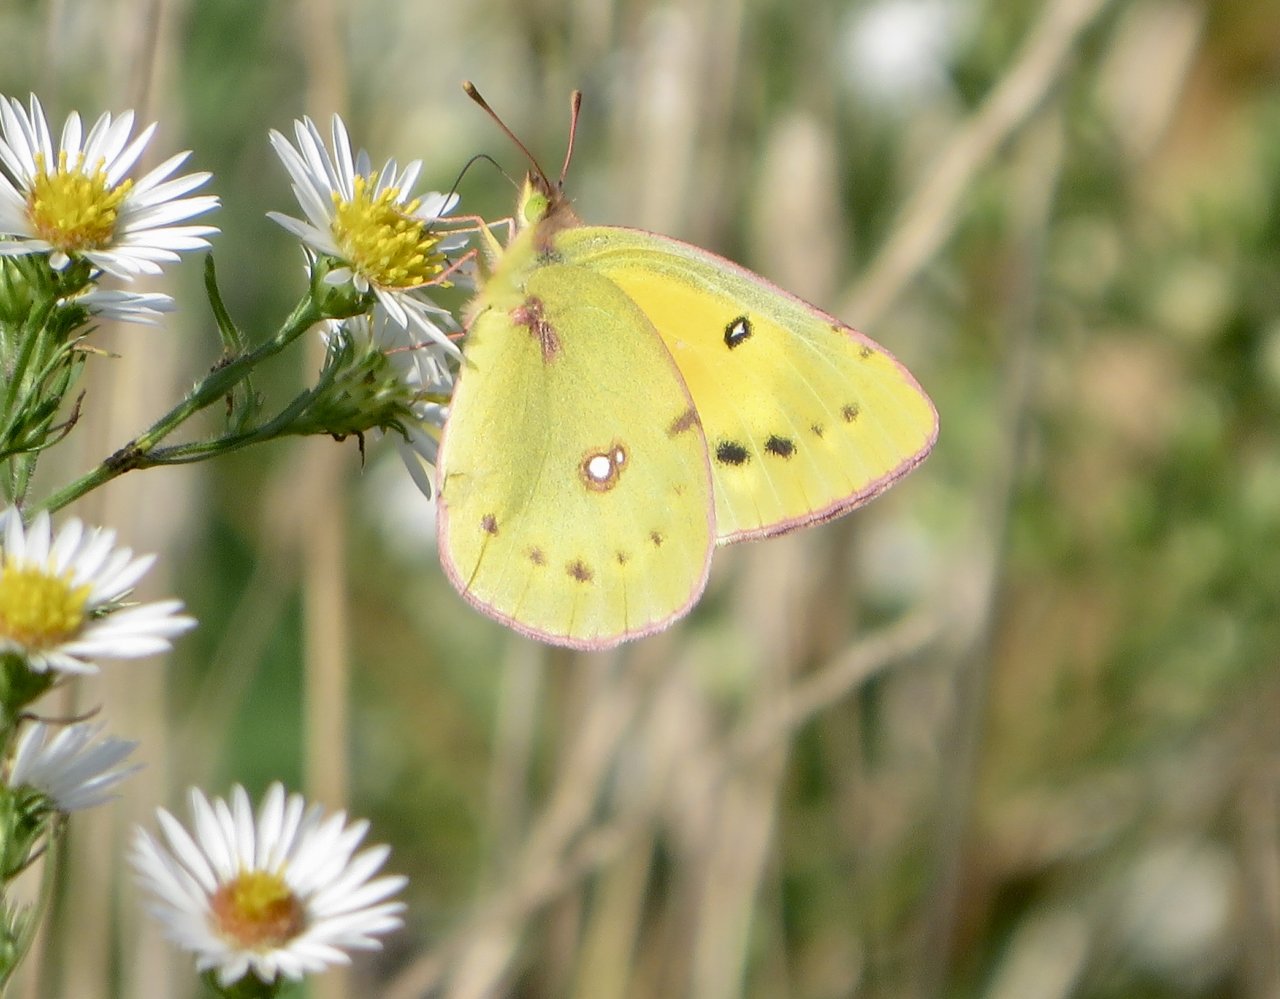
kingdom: Animalia
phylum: Arthropoda
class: Insecta
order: Lepidoptera
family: Pieridae
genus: Colias
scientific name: Colias eurytheme
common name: Orange Sulphur
